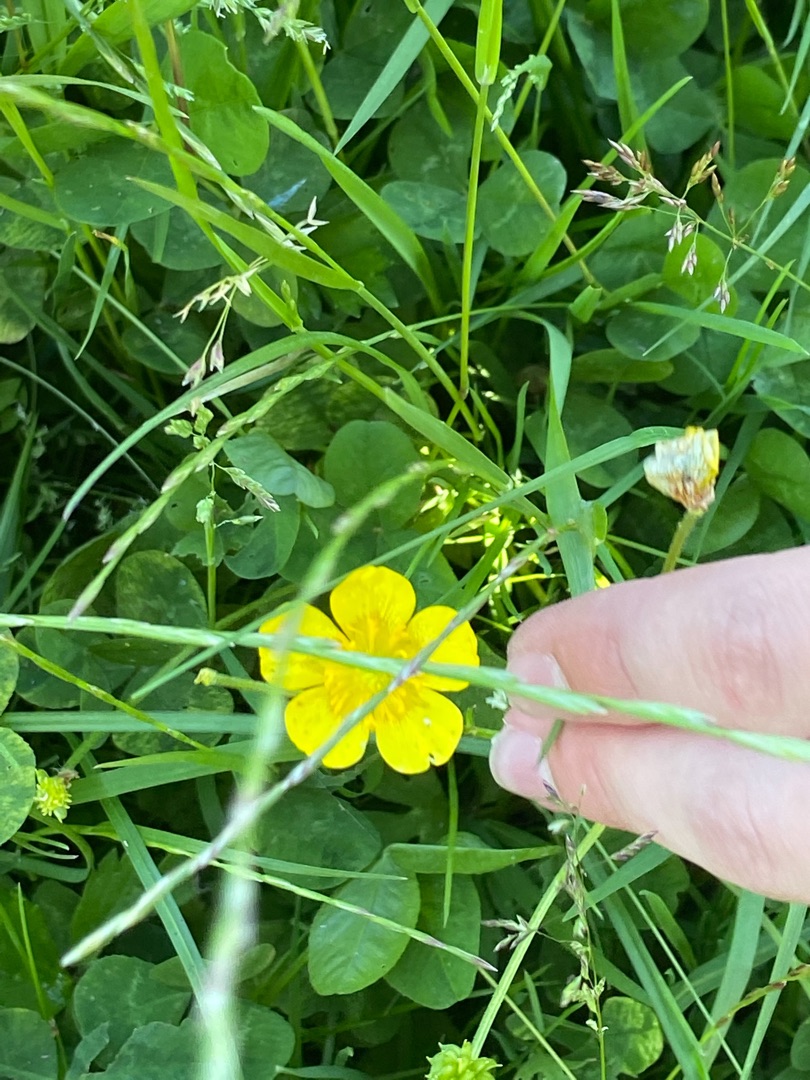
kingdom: Plantae
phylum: Tracheophyta
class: Magnoliopsida
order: Ranunculales
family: Ranunculaceae
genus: Ranunculus
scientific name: Ranunculus repens
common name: Lav ranunkel
